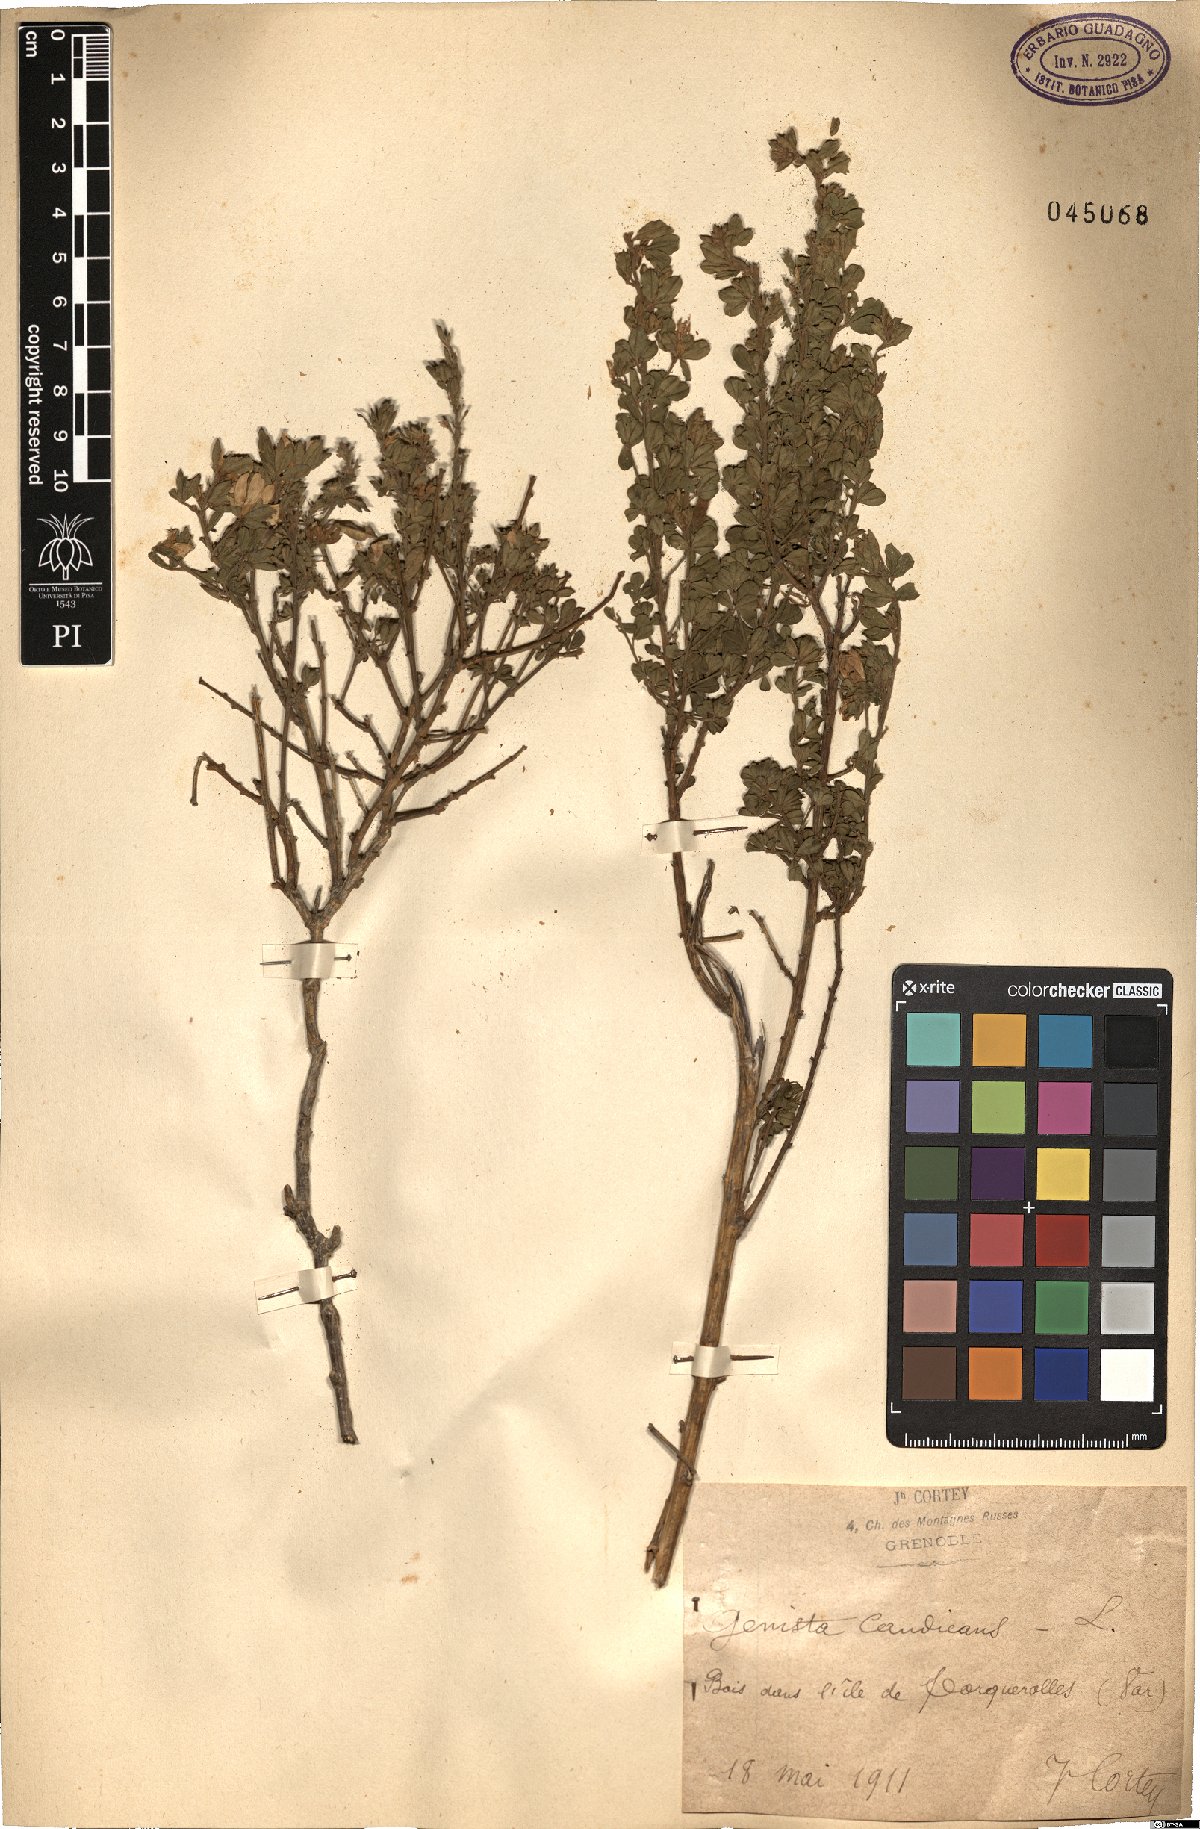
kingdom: Plantae
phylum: Tracheophyta
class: Magnoliopsida
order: Fabales
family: Fabaceae
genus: Genista
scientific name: Genista monspessulana
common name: Montpellier broom
